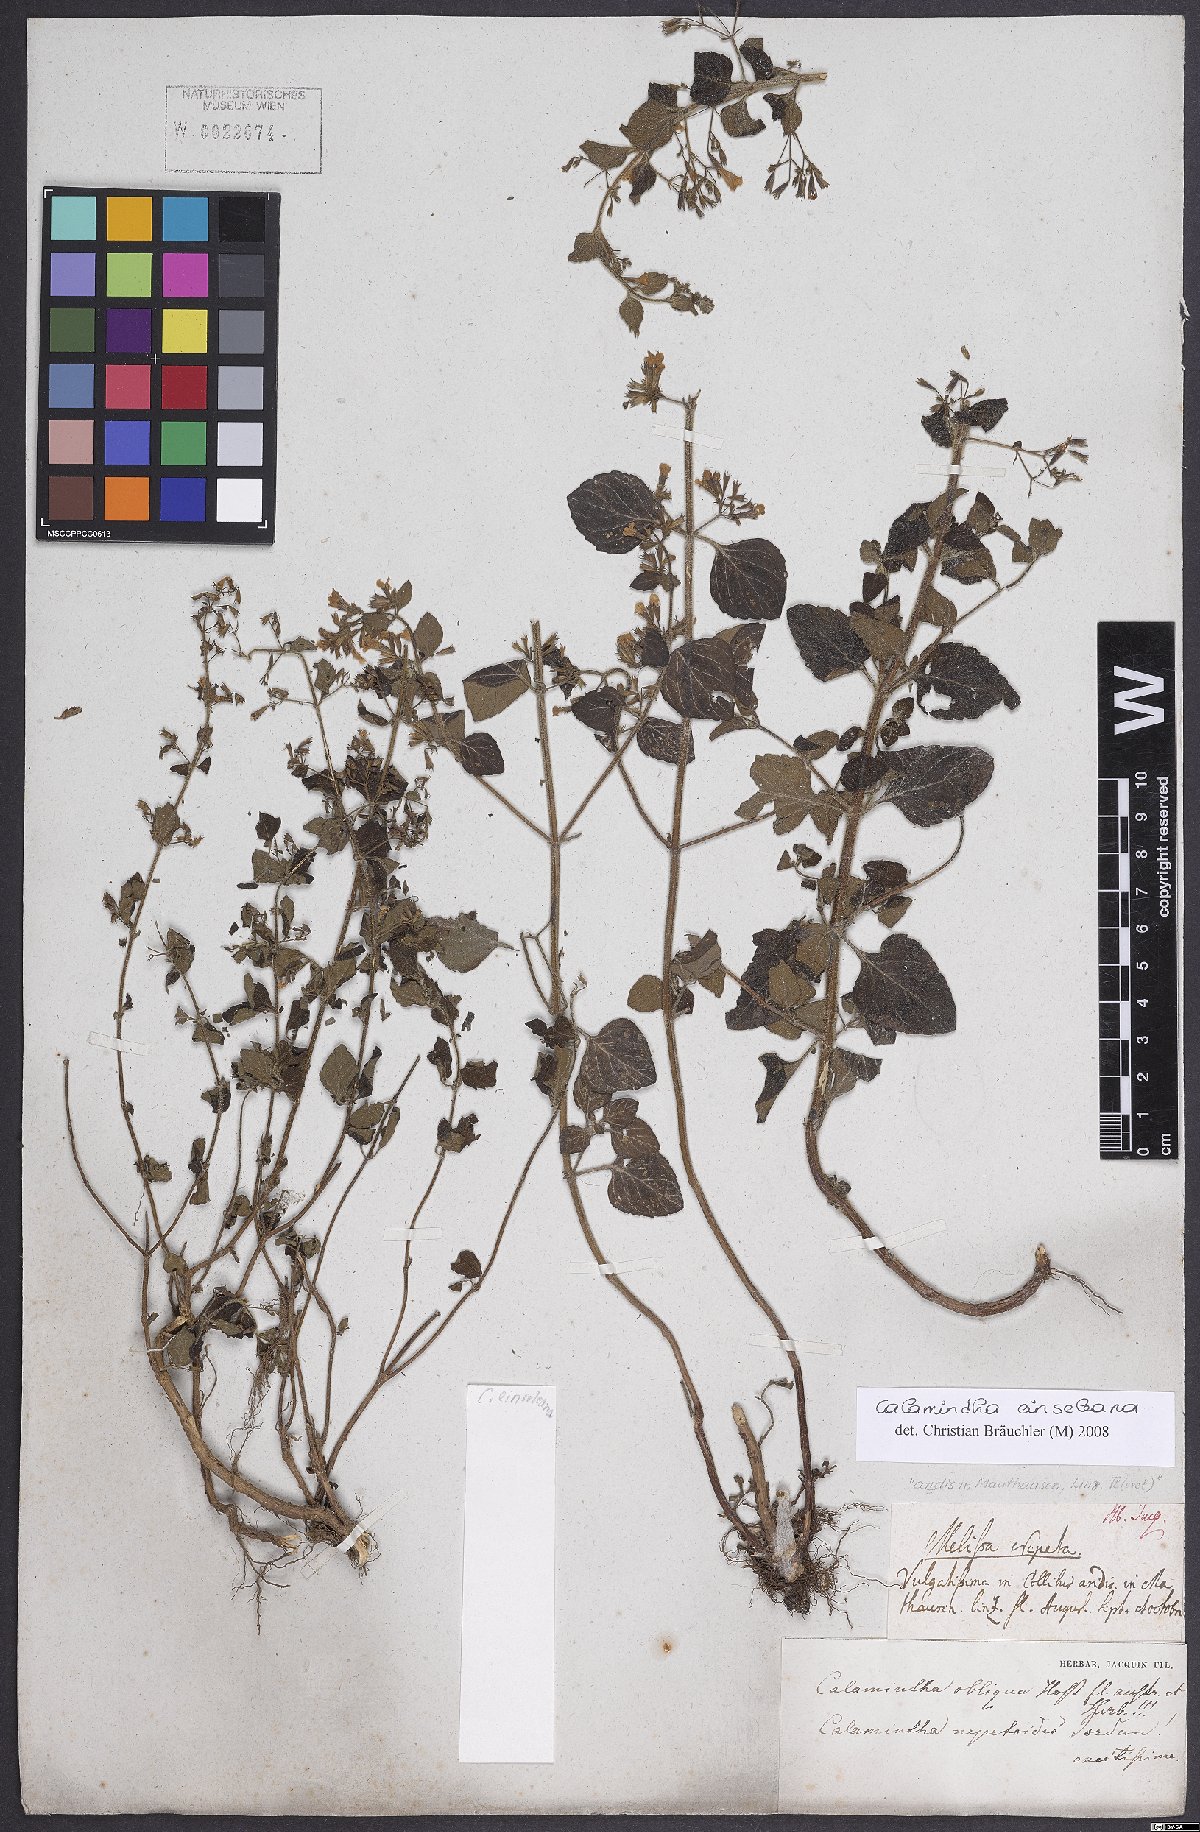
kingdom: Plantae
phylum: Tracheophyta
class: Magnoliopsida
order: Lamiales
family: Lamiaceae
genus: Clinopodium
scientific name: Clinopodium nepeta
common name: Lesser calamint
